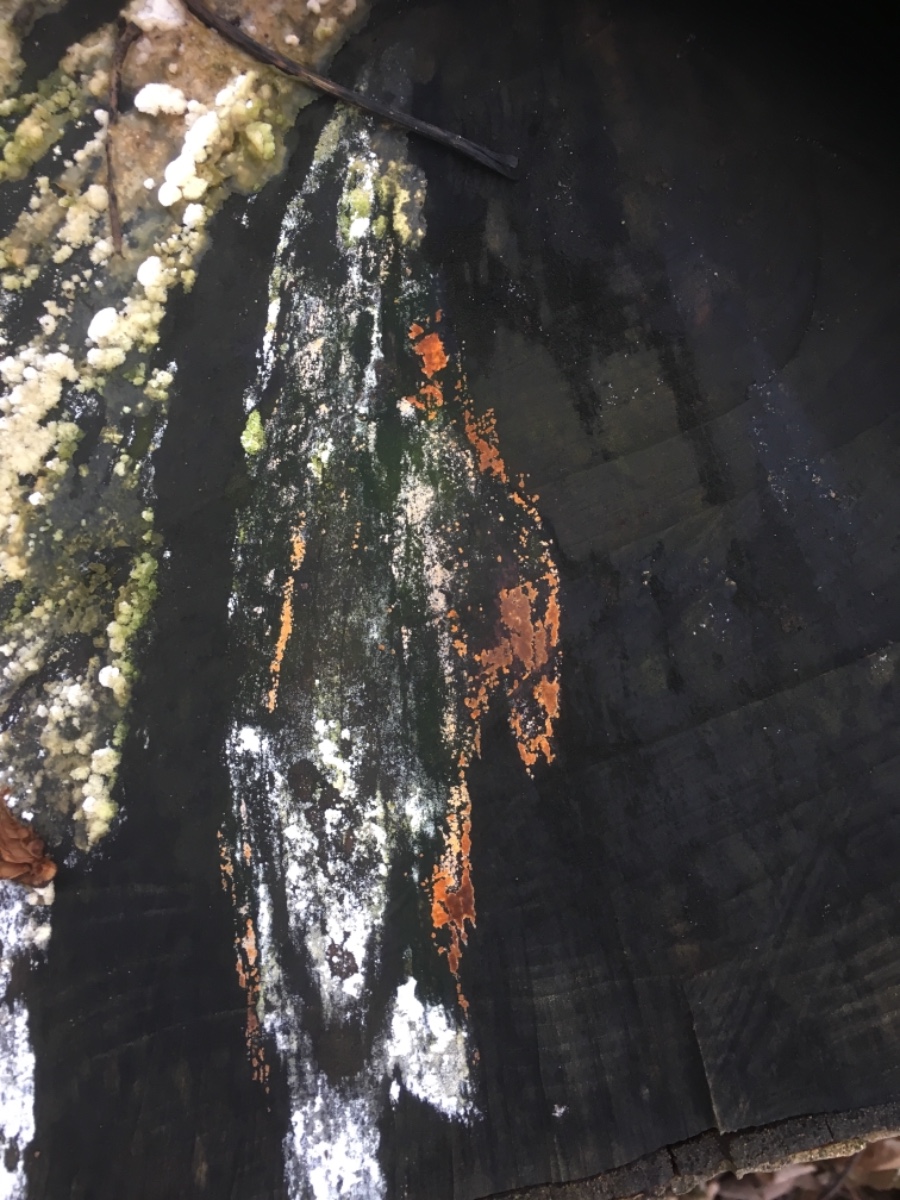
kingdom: Fungi
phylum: Basidiomycota
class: Agaricomycetes
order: Russulales
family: Peniophoraceae
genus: Peniophora
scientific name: Peniophora incarnata
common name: laksefarvet voksskind
